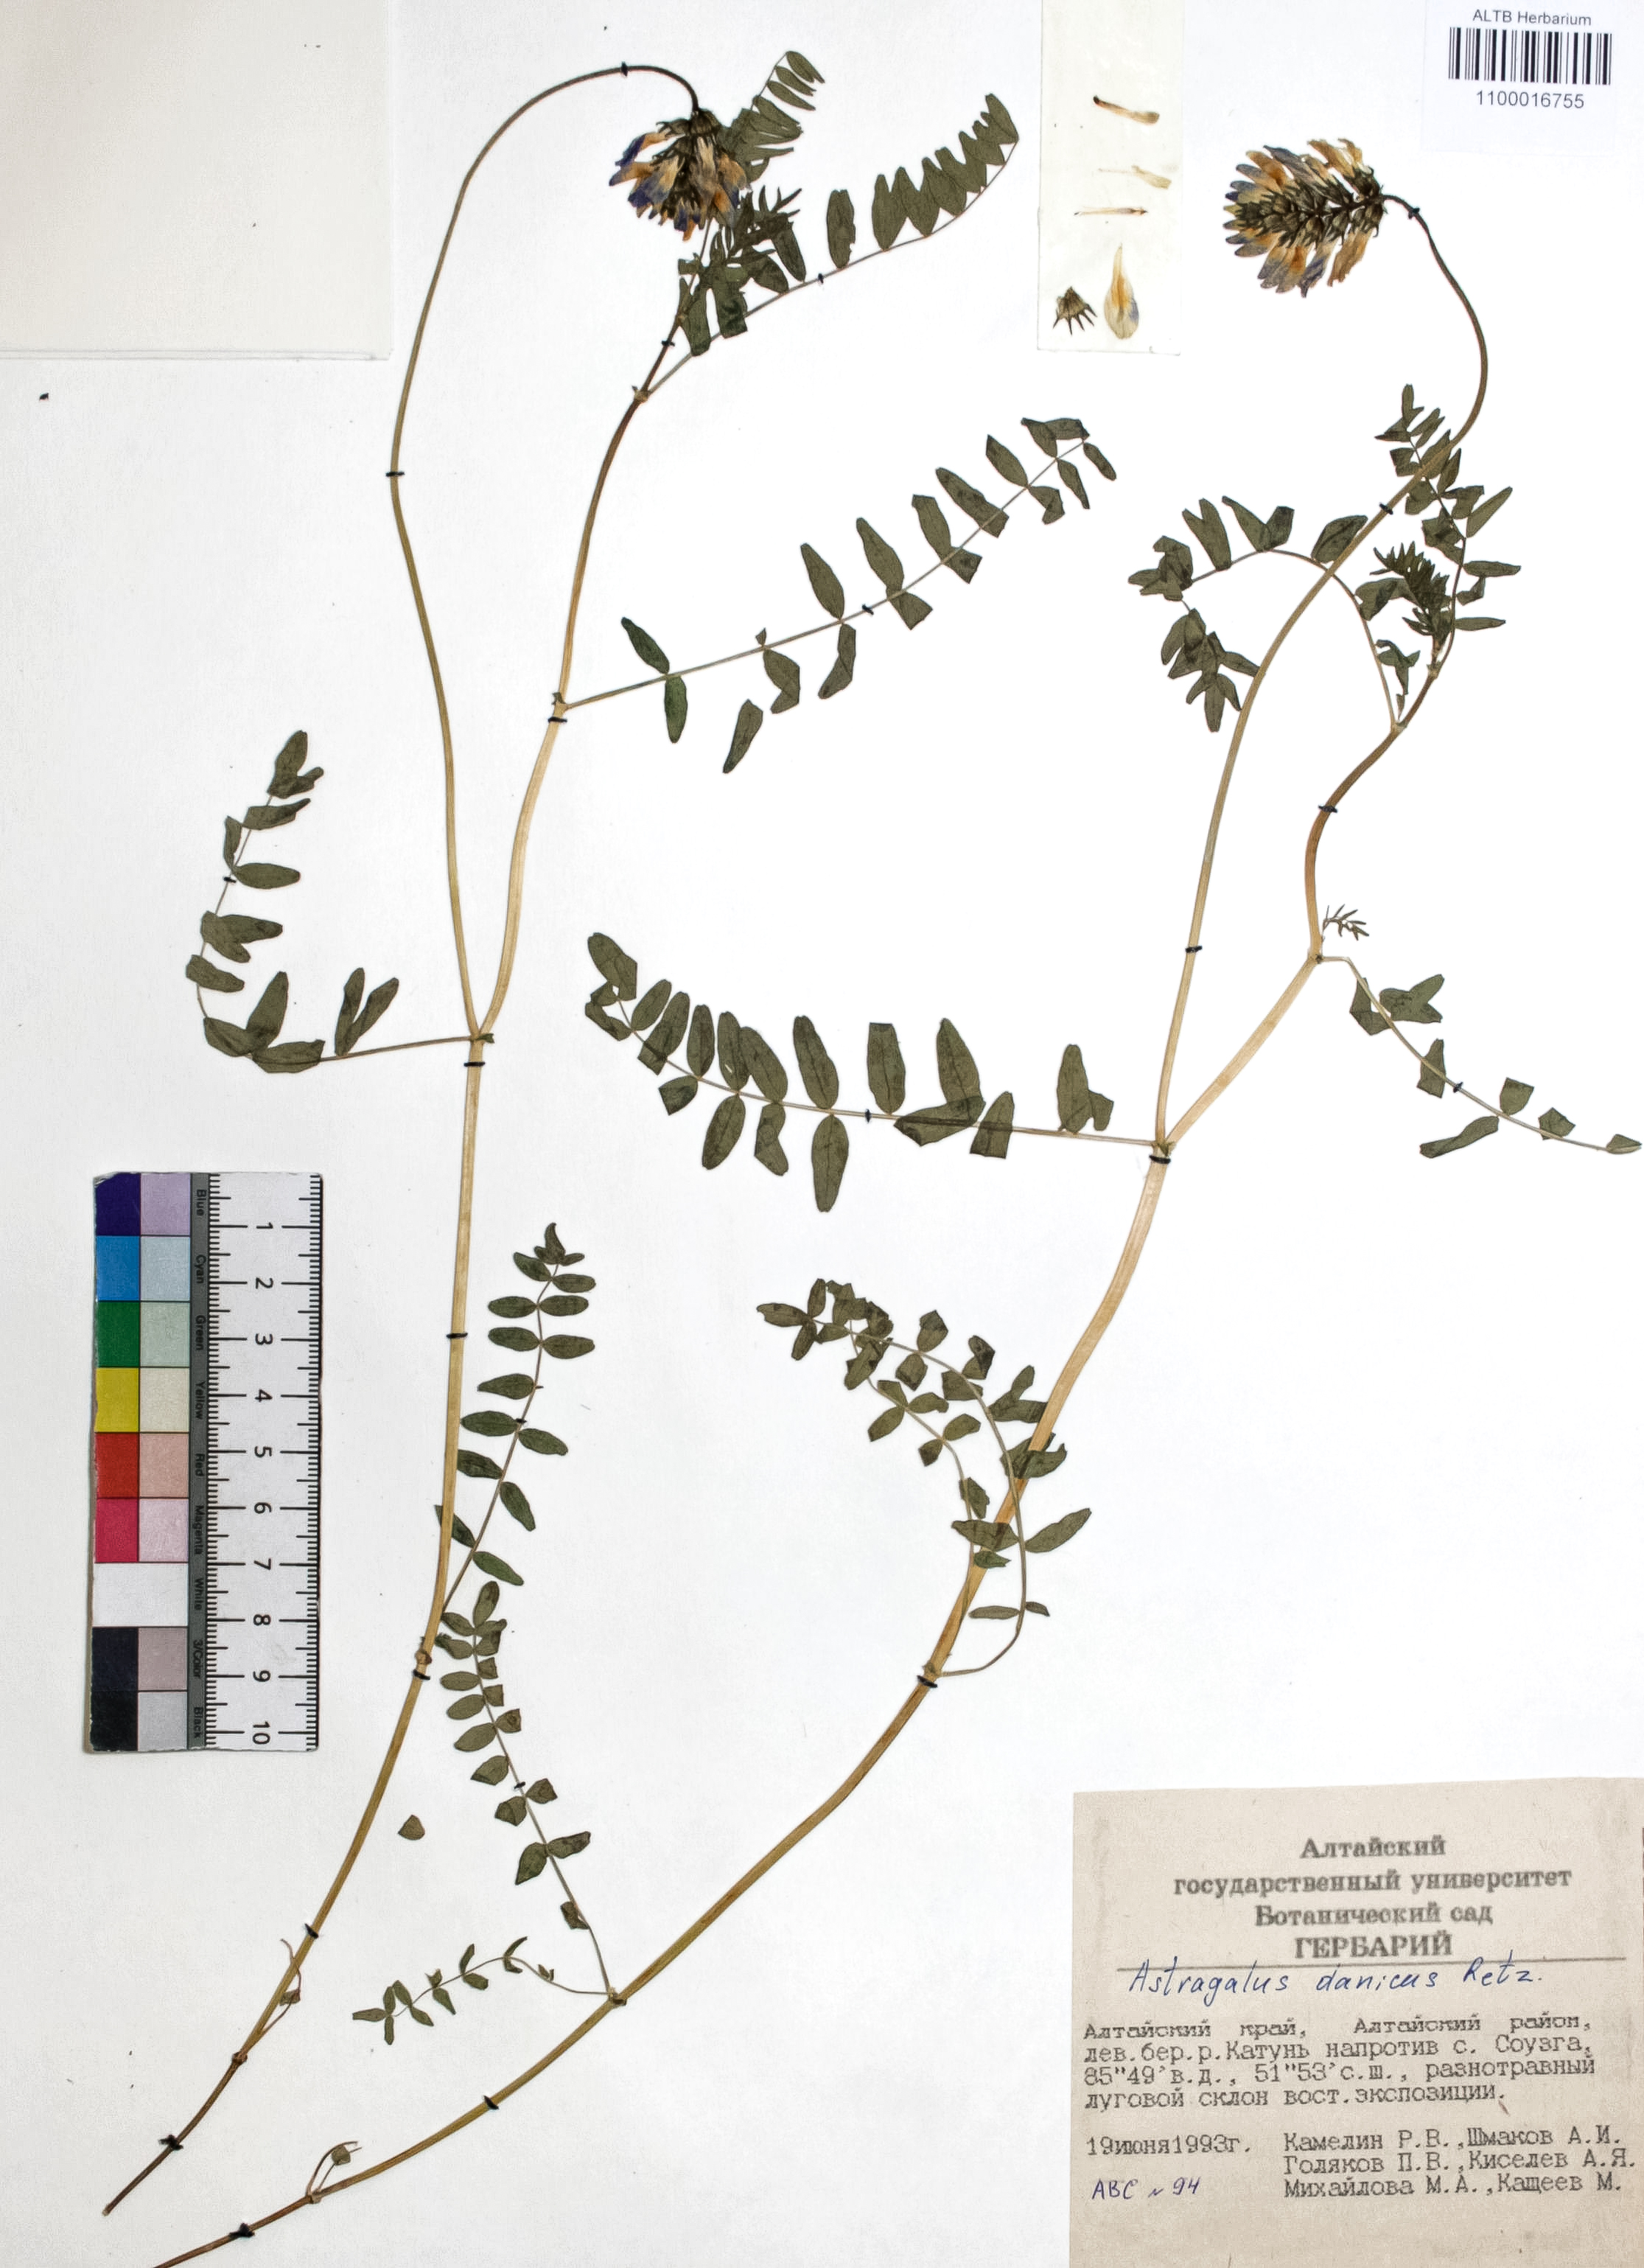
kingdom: Plantae
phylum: Tracheophyta
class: Magnoliopsida
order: Fabales
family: Fabaceae
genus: Astragalus
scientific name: Astragalus danicus
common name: Purple milk-vetch
